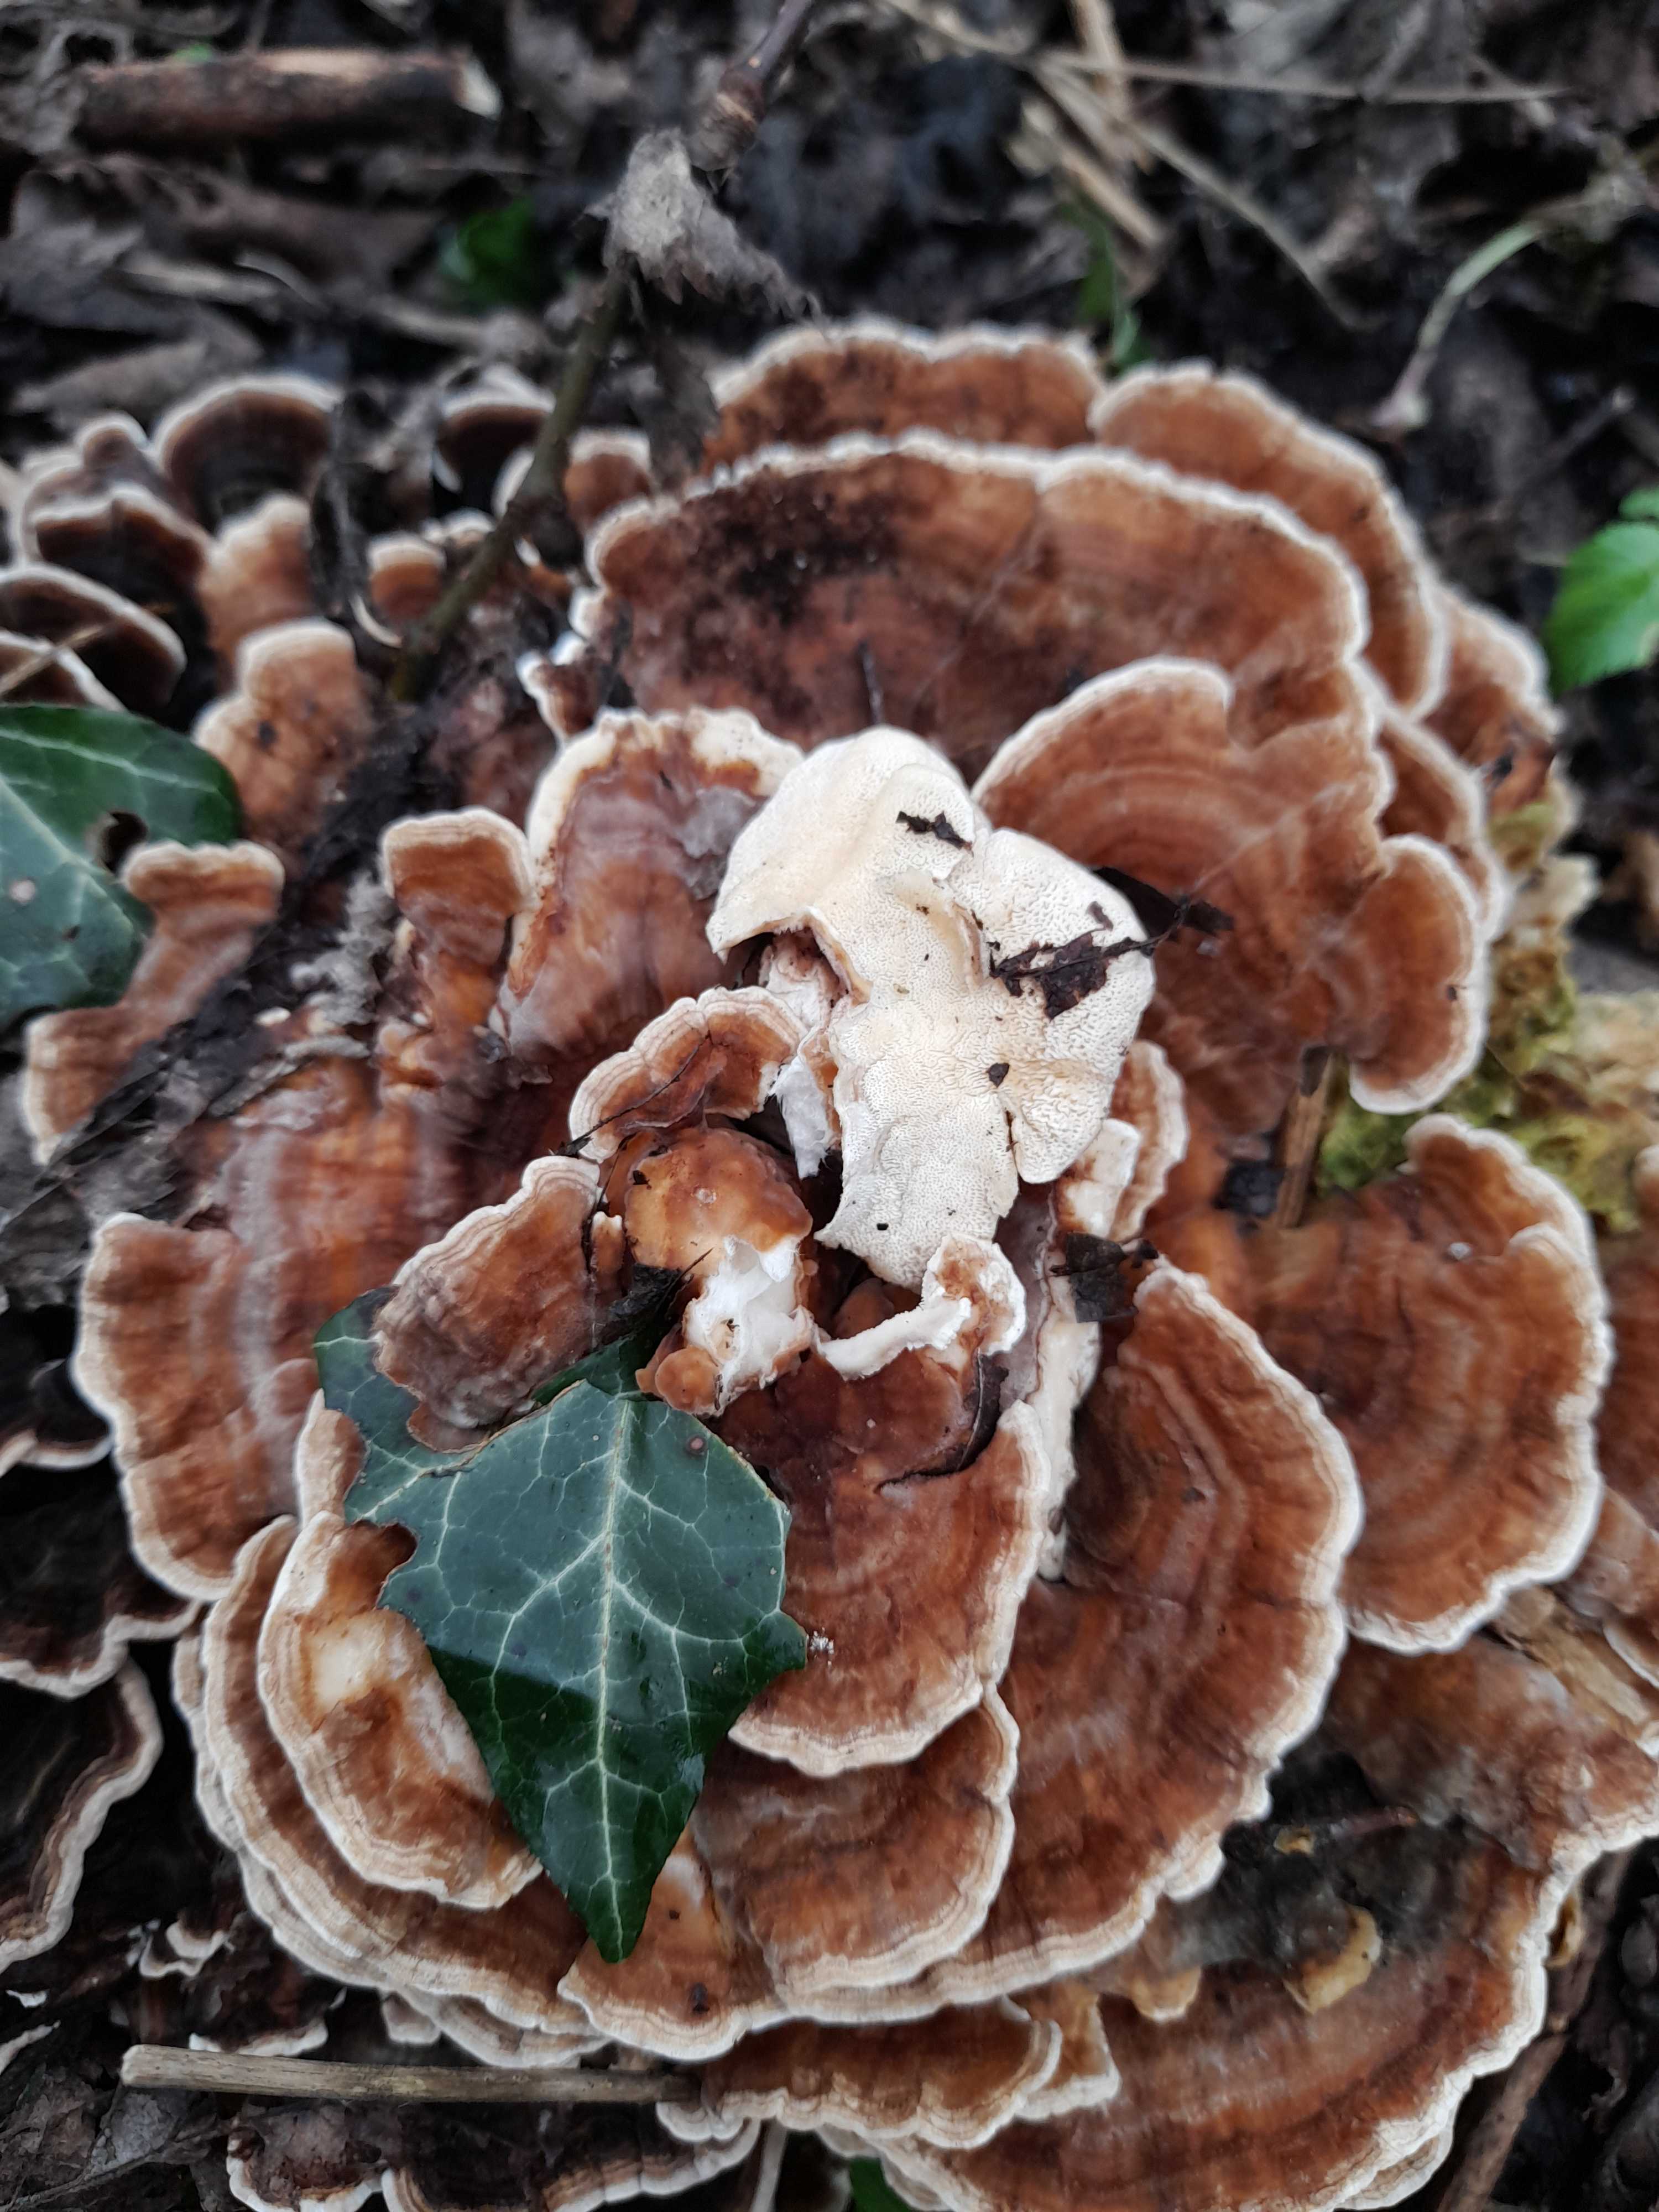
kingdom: Fungi
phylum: Basidiomycota
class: Agaricomycetes
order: Polyporales
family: Polyporaceae
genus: Trametes
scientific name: Trametes versicolor
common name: broget læderporesvamp
